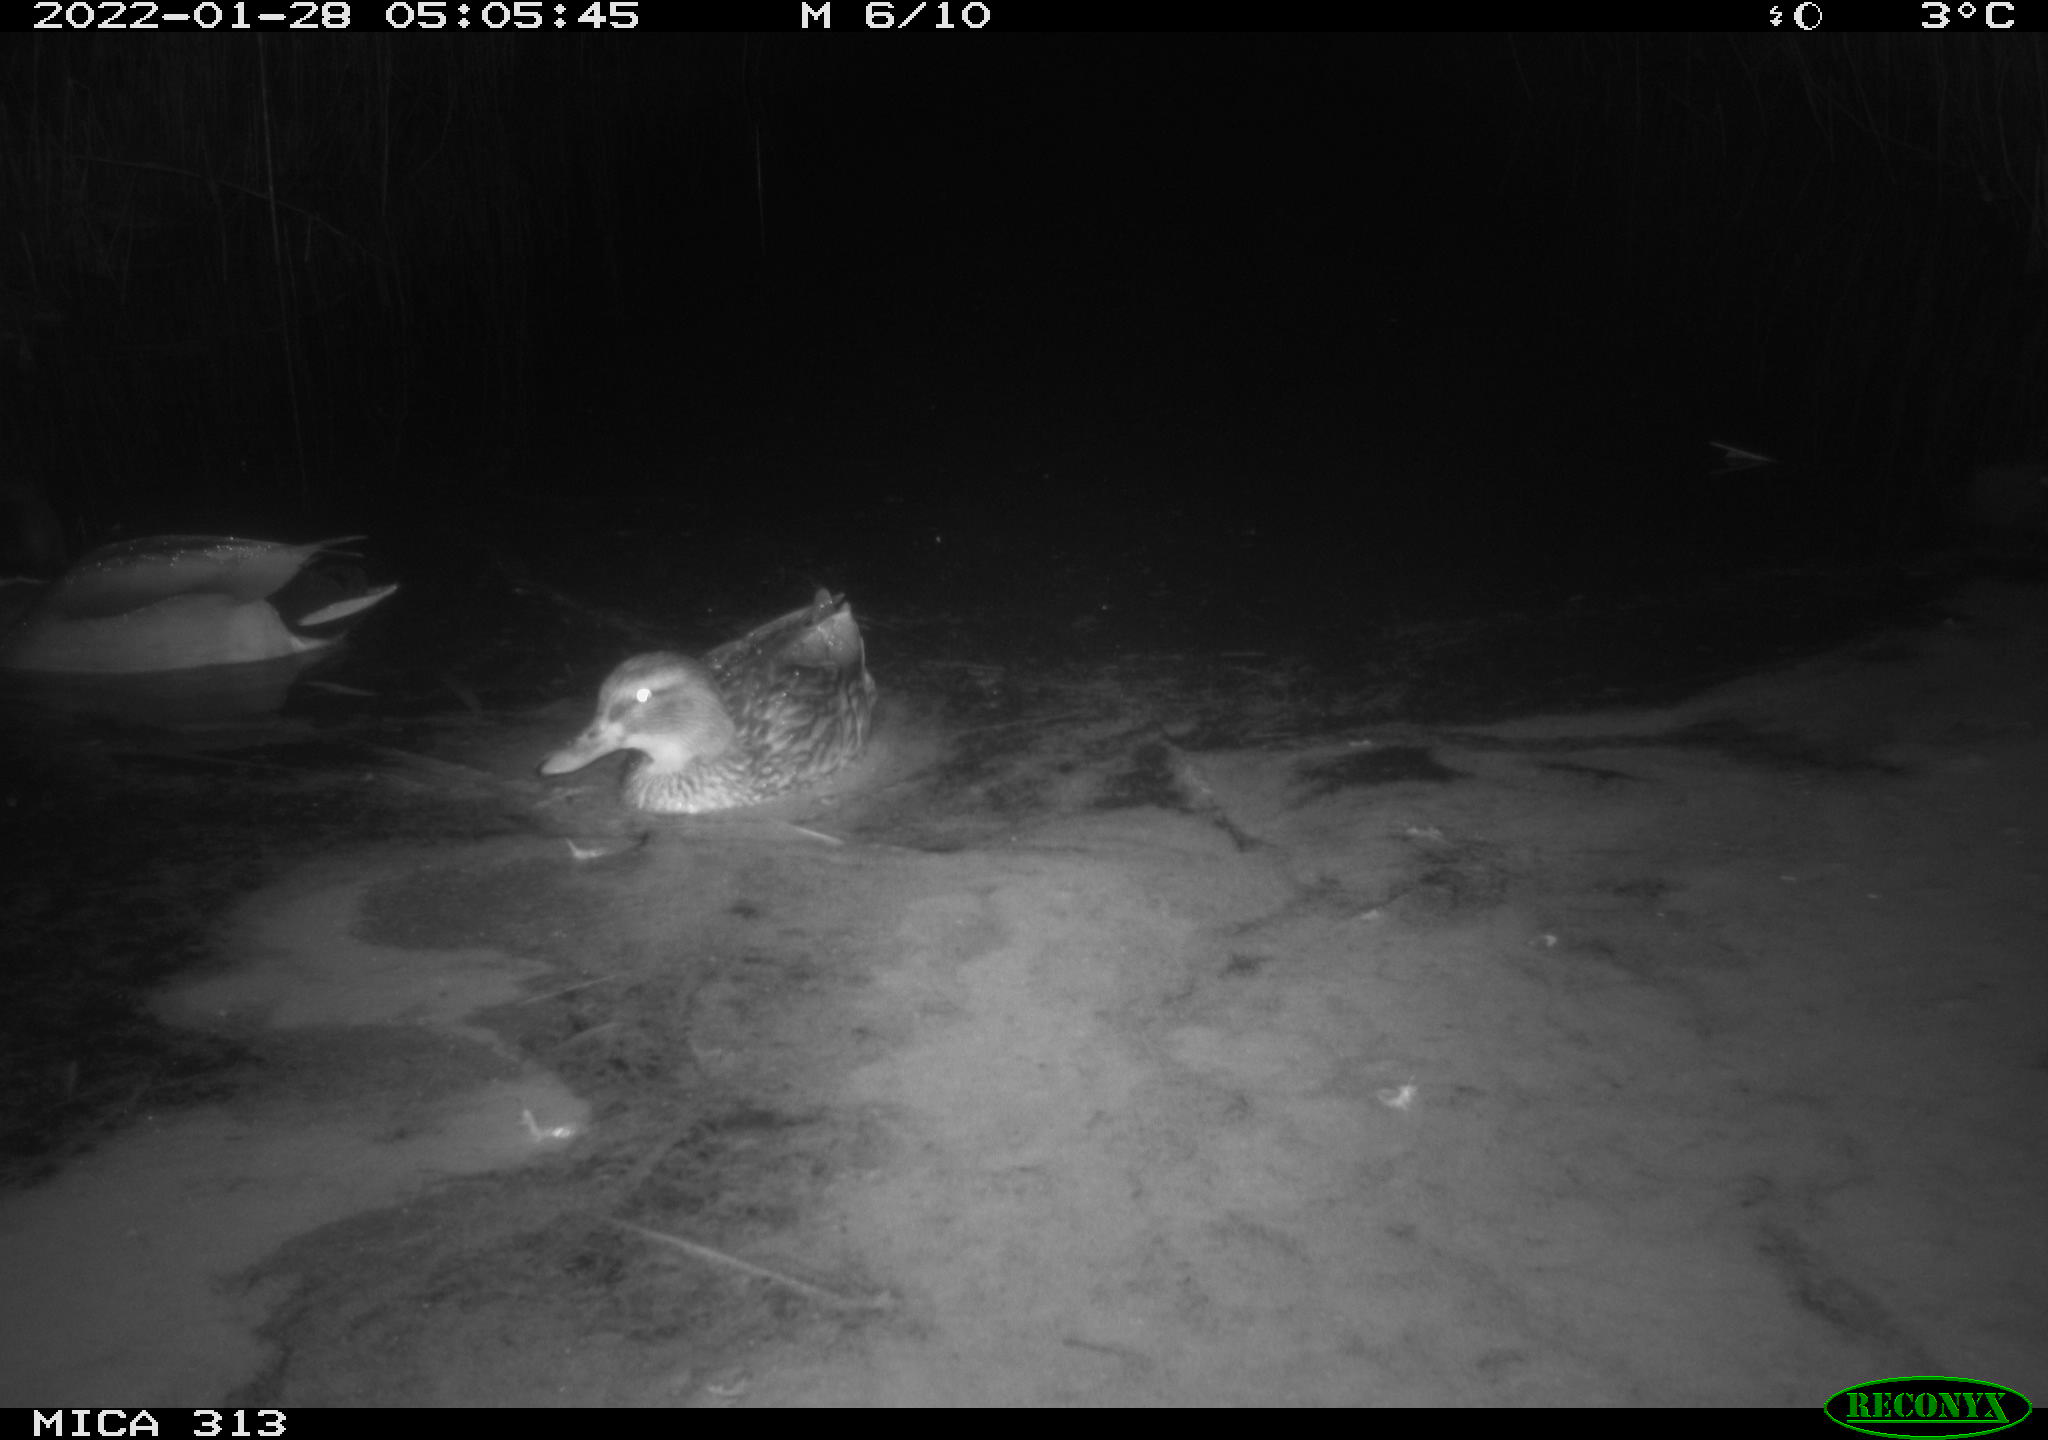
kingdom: Animalia
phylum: Chordata
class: Aves
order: Anseriformes
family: Anatidae
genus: Anas
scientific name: Anas
